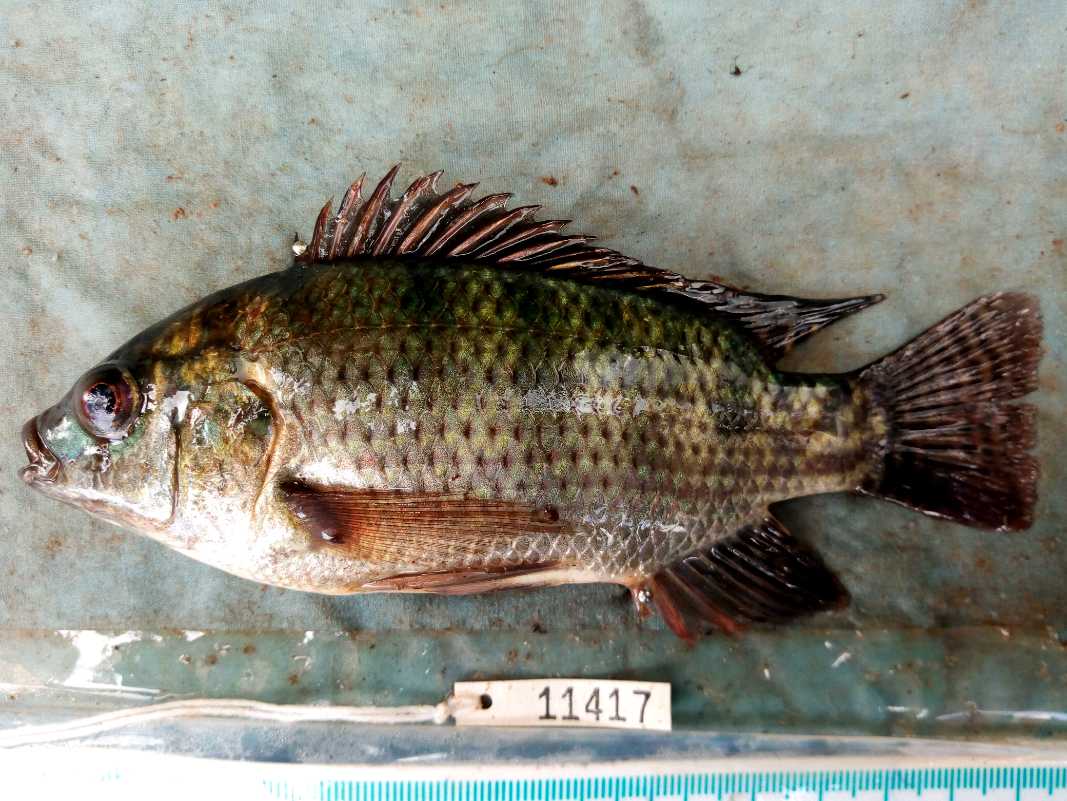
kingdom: Animalia
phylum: Chordata
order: Perciformes
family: Cichlidae
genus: Oreochromis
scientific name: Oreochromis niloticus
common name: Nile tilapia
